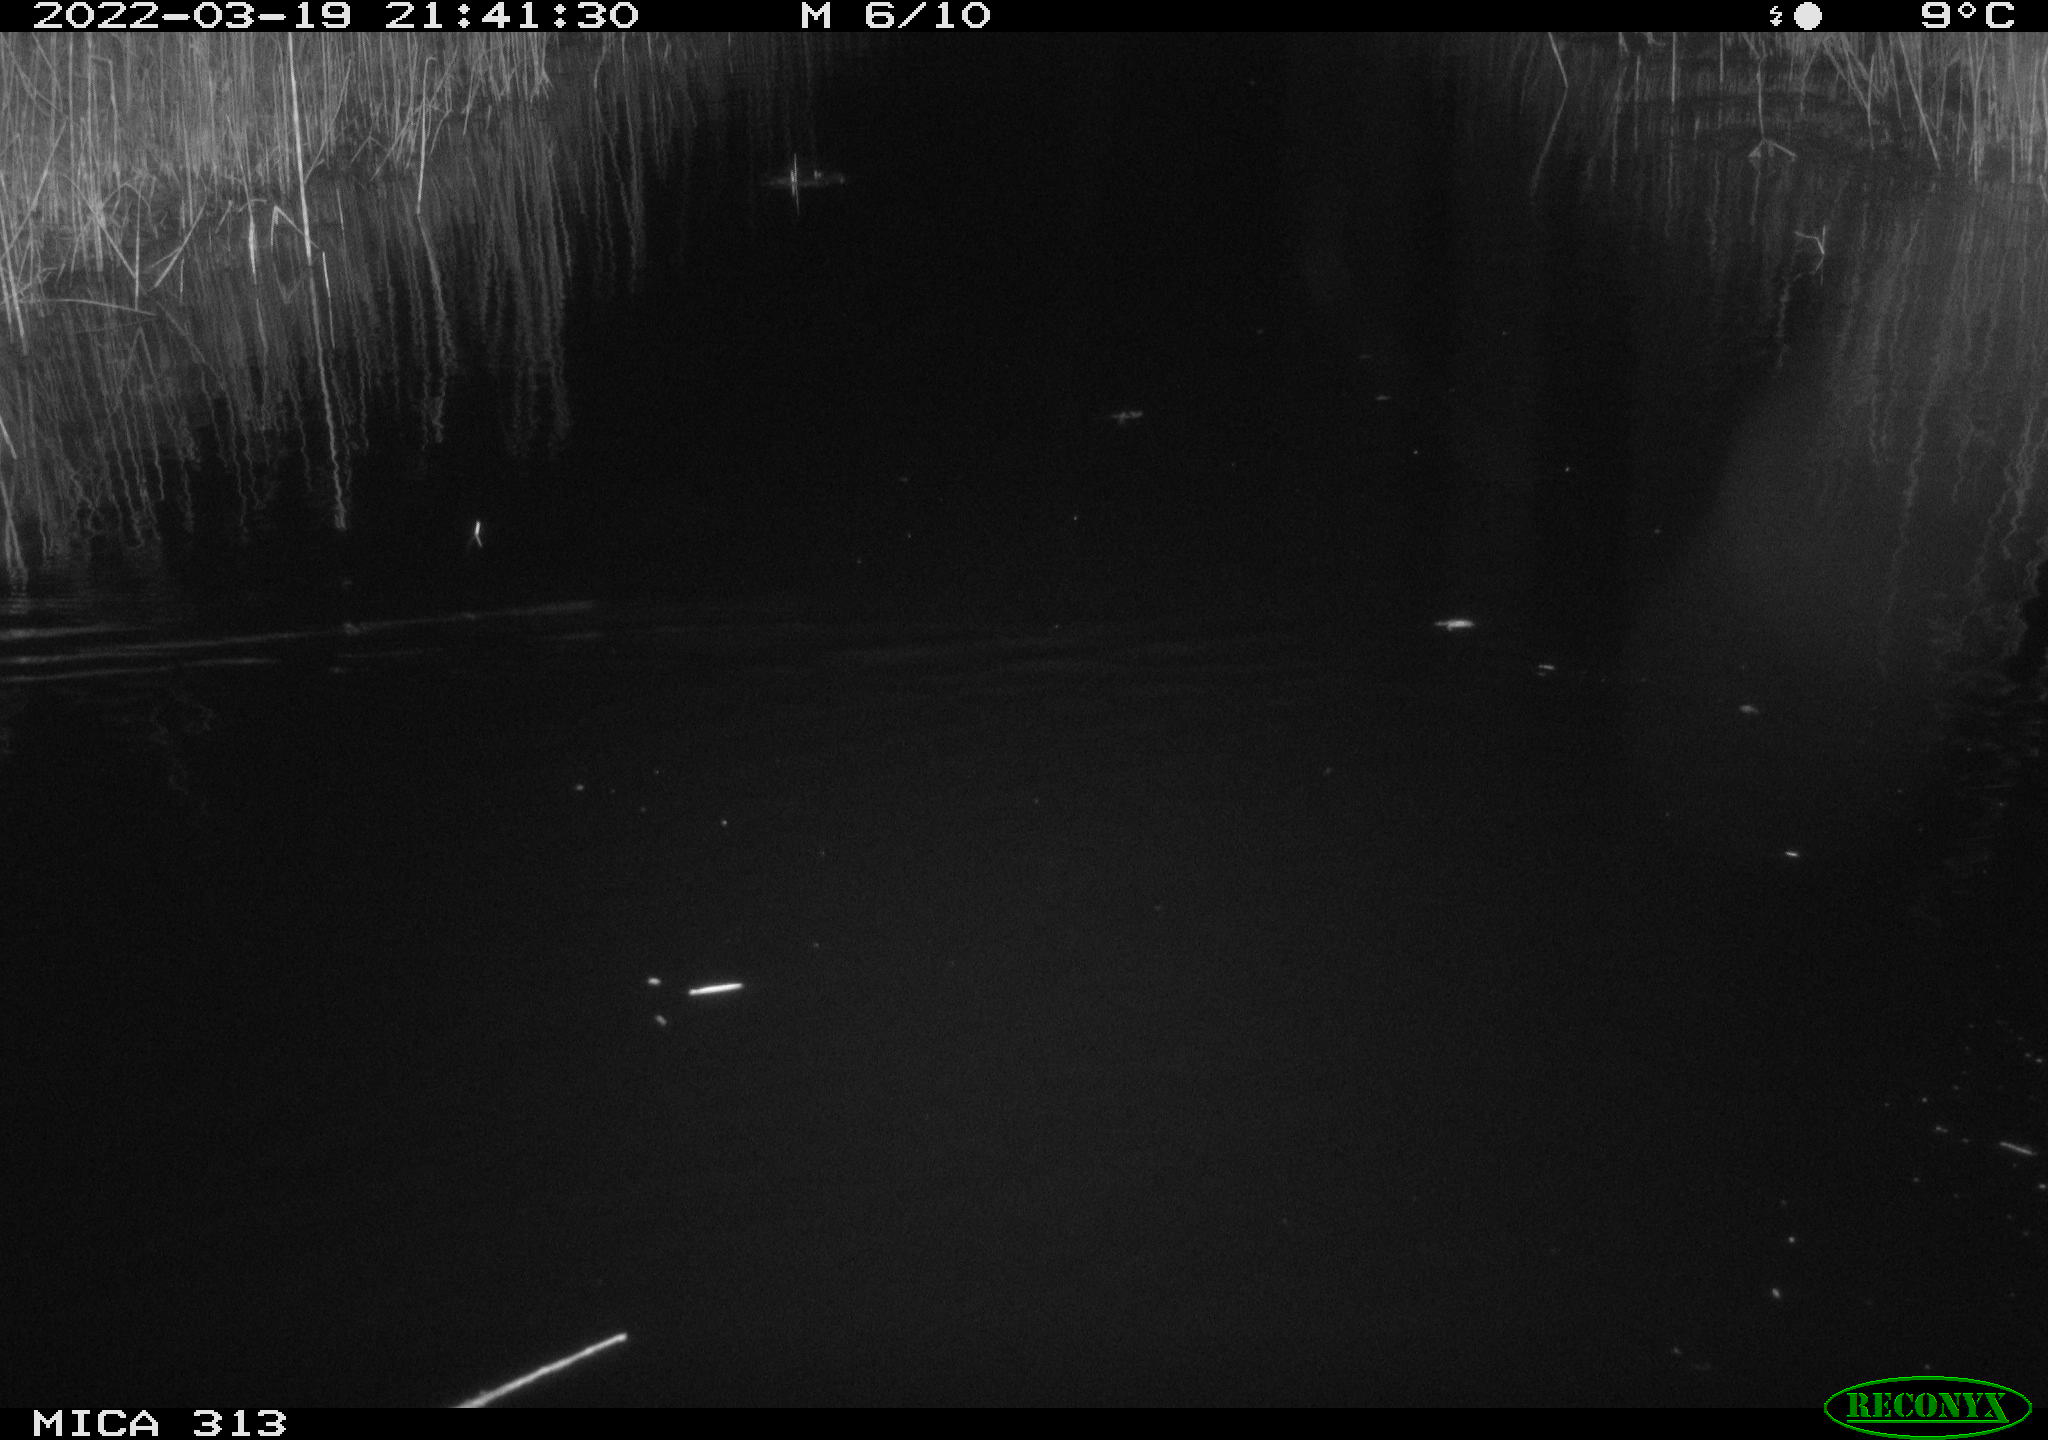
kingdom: Animalia
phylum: Chordata
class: Mammalia
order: Rodentia
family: Cricetidae
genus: Ondatra
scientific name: Ondatra zibethicus
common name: Muskrat
